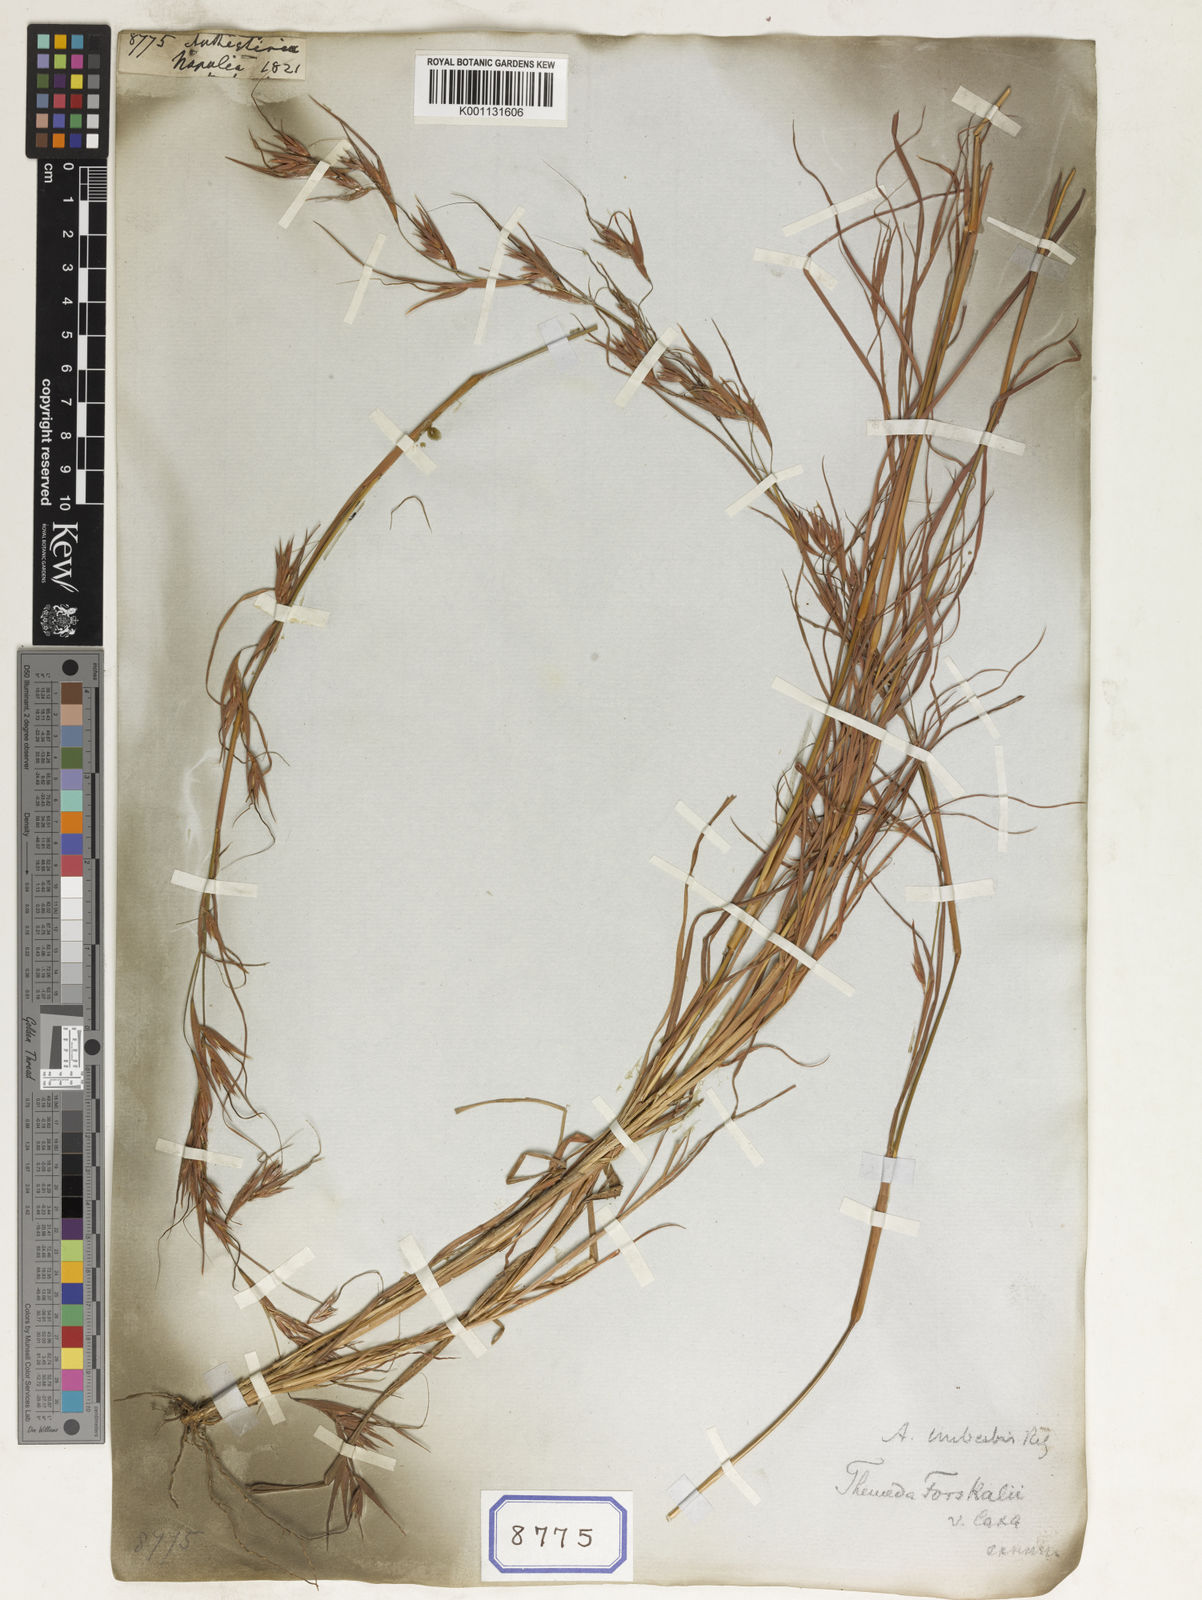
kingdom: Plantae
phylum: Tracheophyta
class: Liliopsida
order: Poales
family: Poaceae
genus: Themeda
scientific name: Themeda
